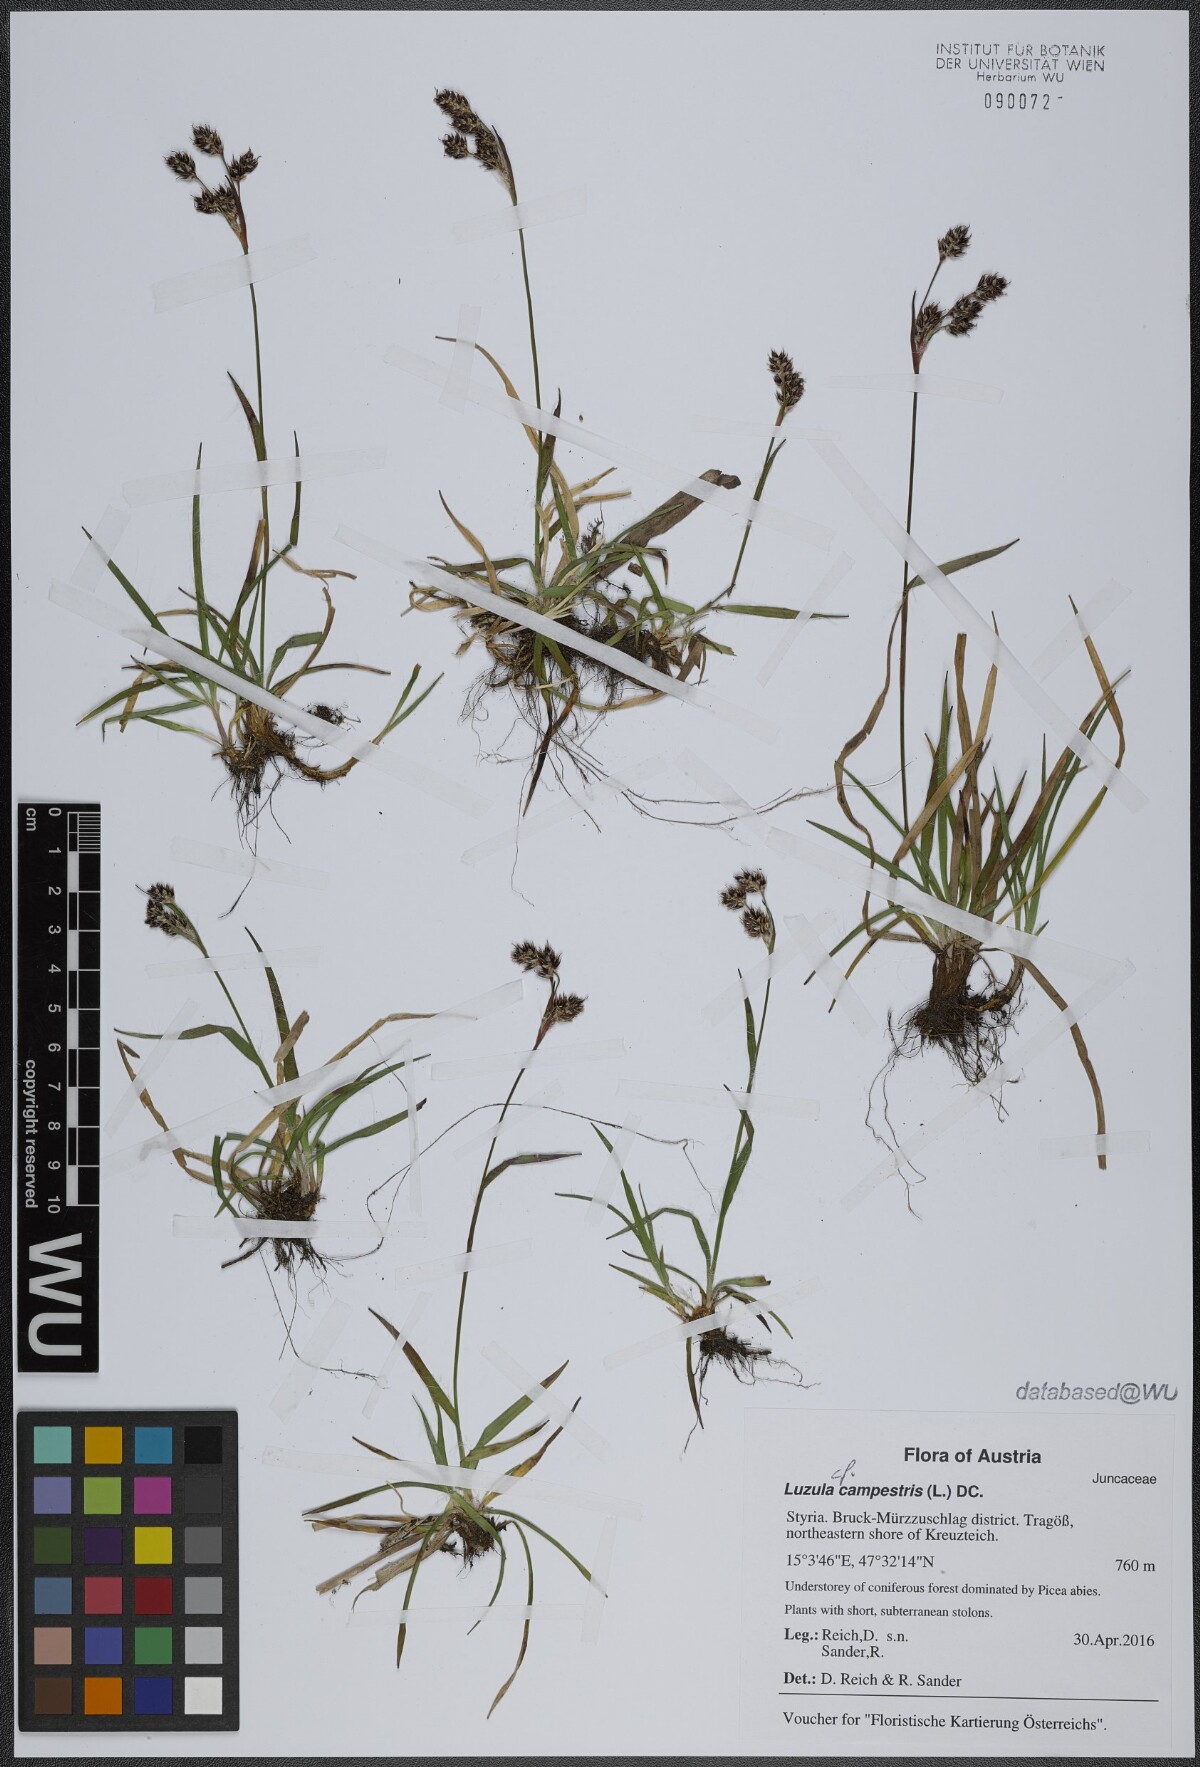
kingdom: Plantae
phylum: Tracheophyta
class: Liliopsida
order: Poales
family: Juncaceae
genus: Luzula
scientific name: Luzula campestris
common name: Field wood-rush
